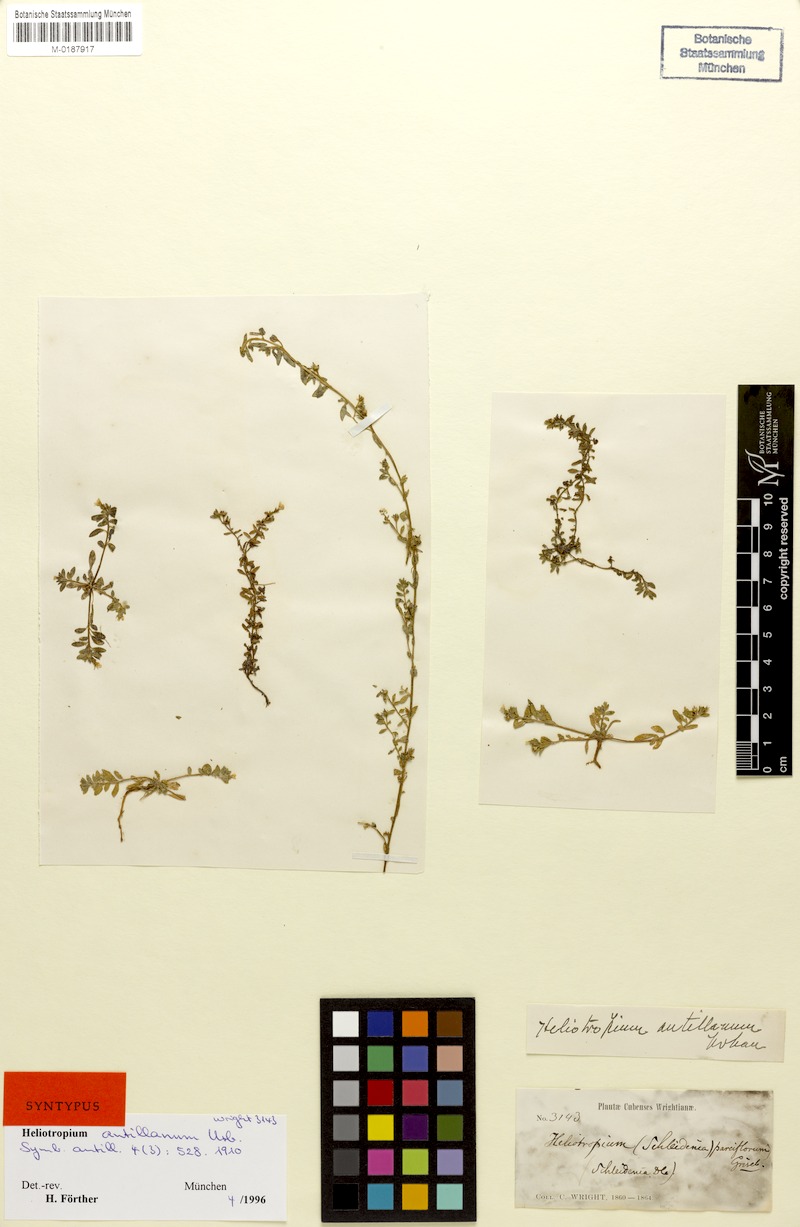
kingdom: Plantae
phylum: Tracheophyta
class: Magnoliopsida
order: Boraginales
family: Heliotropiaceae
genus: Euploca
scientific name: Euploca antillana
